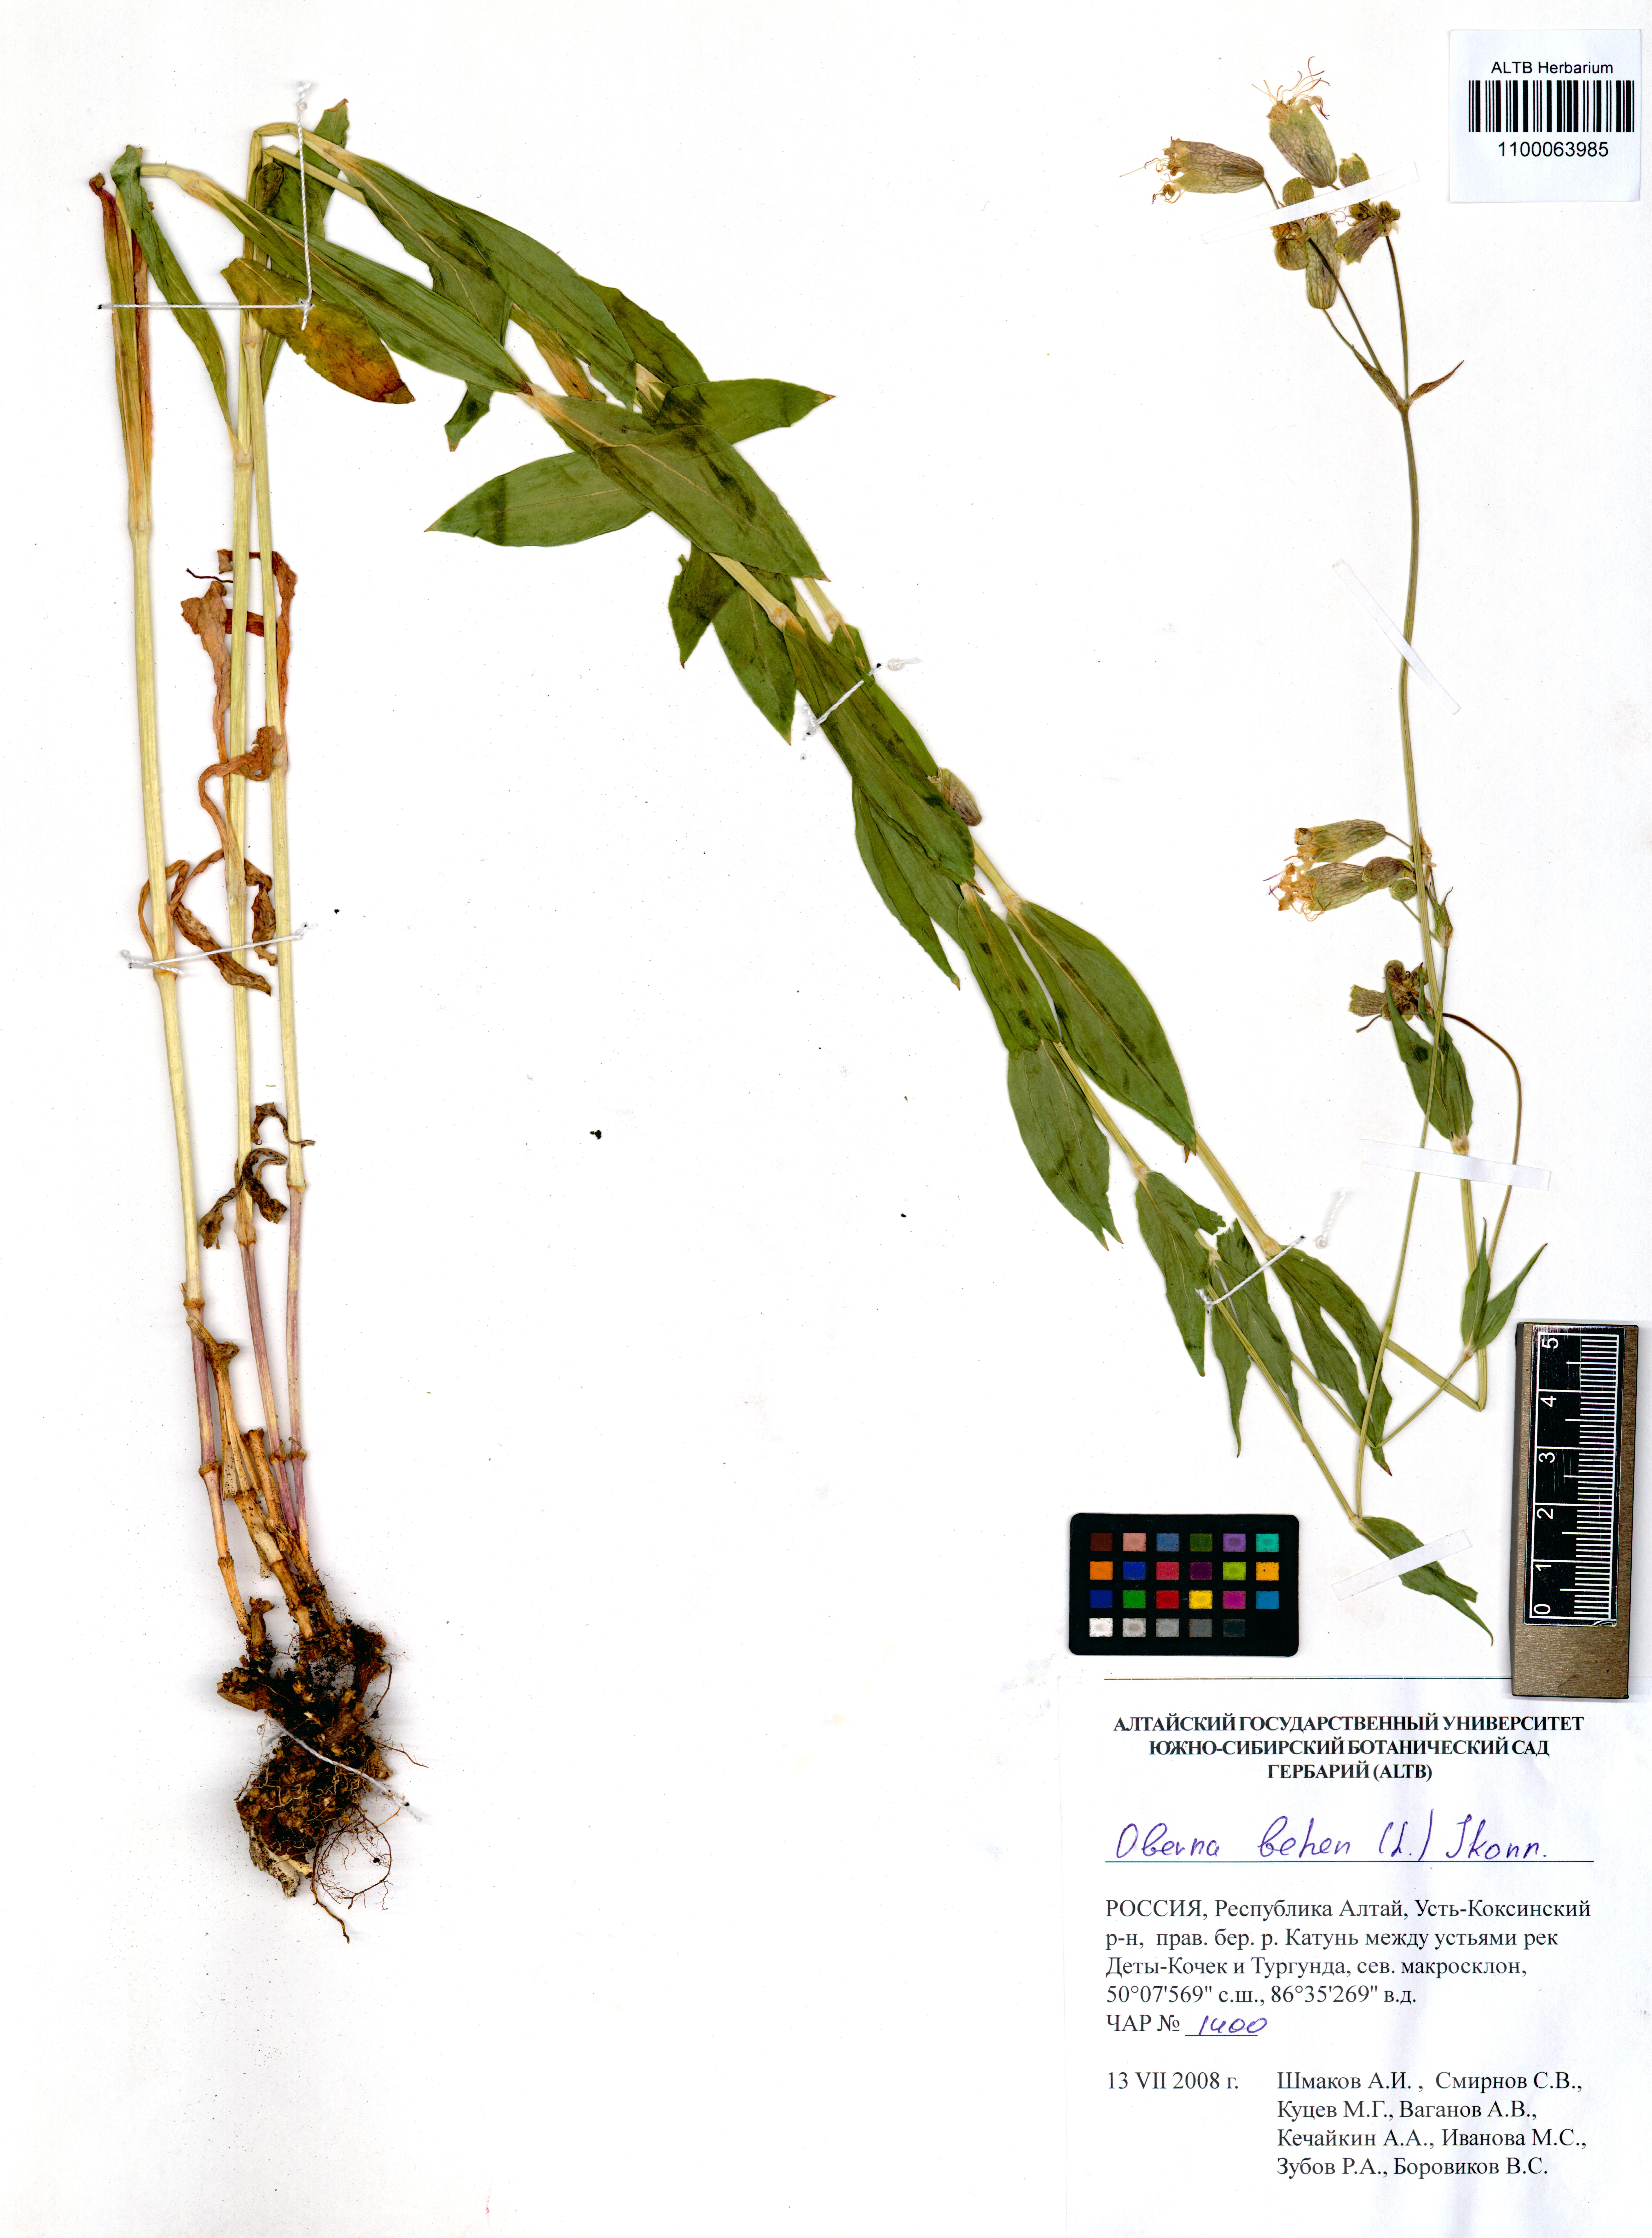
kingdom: Plantae
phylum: Tracheophyta
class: Magnoliopsida
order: Caryophyllales
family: Caryophyllaceae
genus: Silene
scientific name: Silene behen
